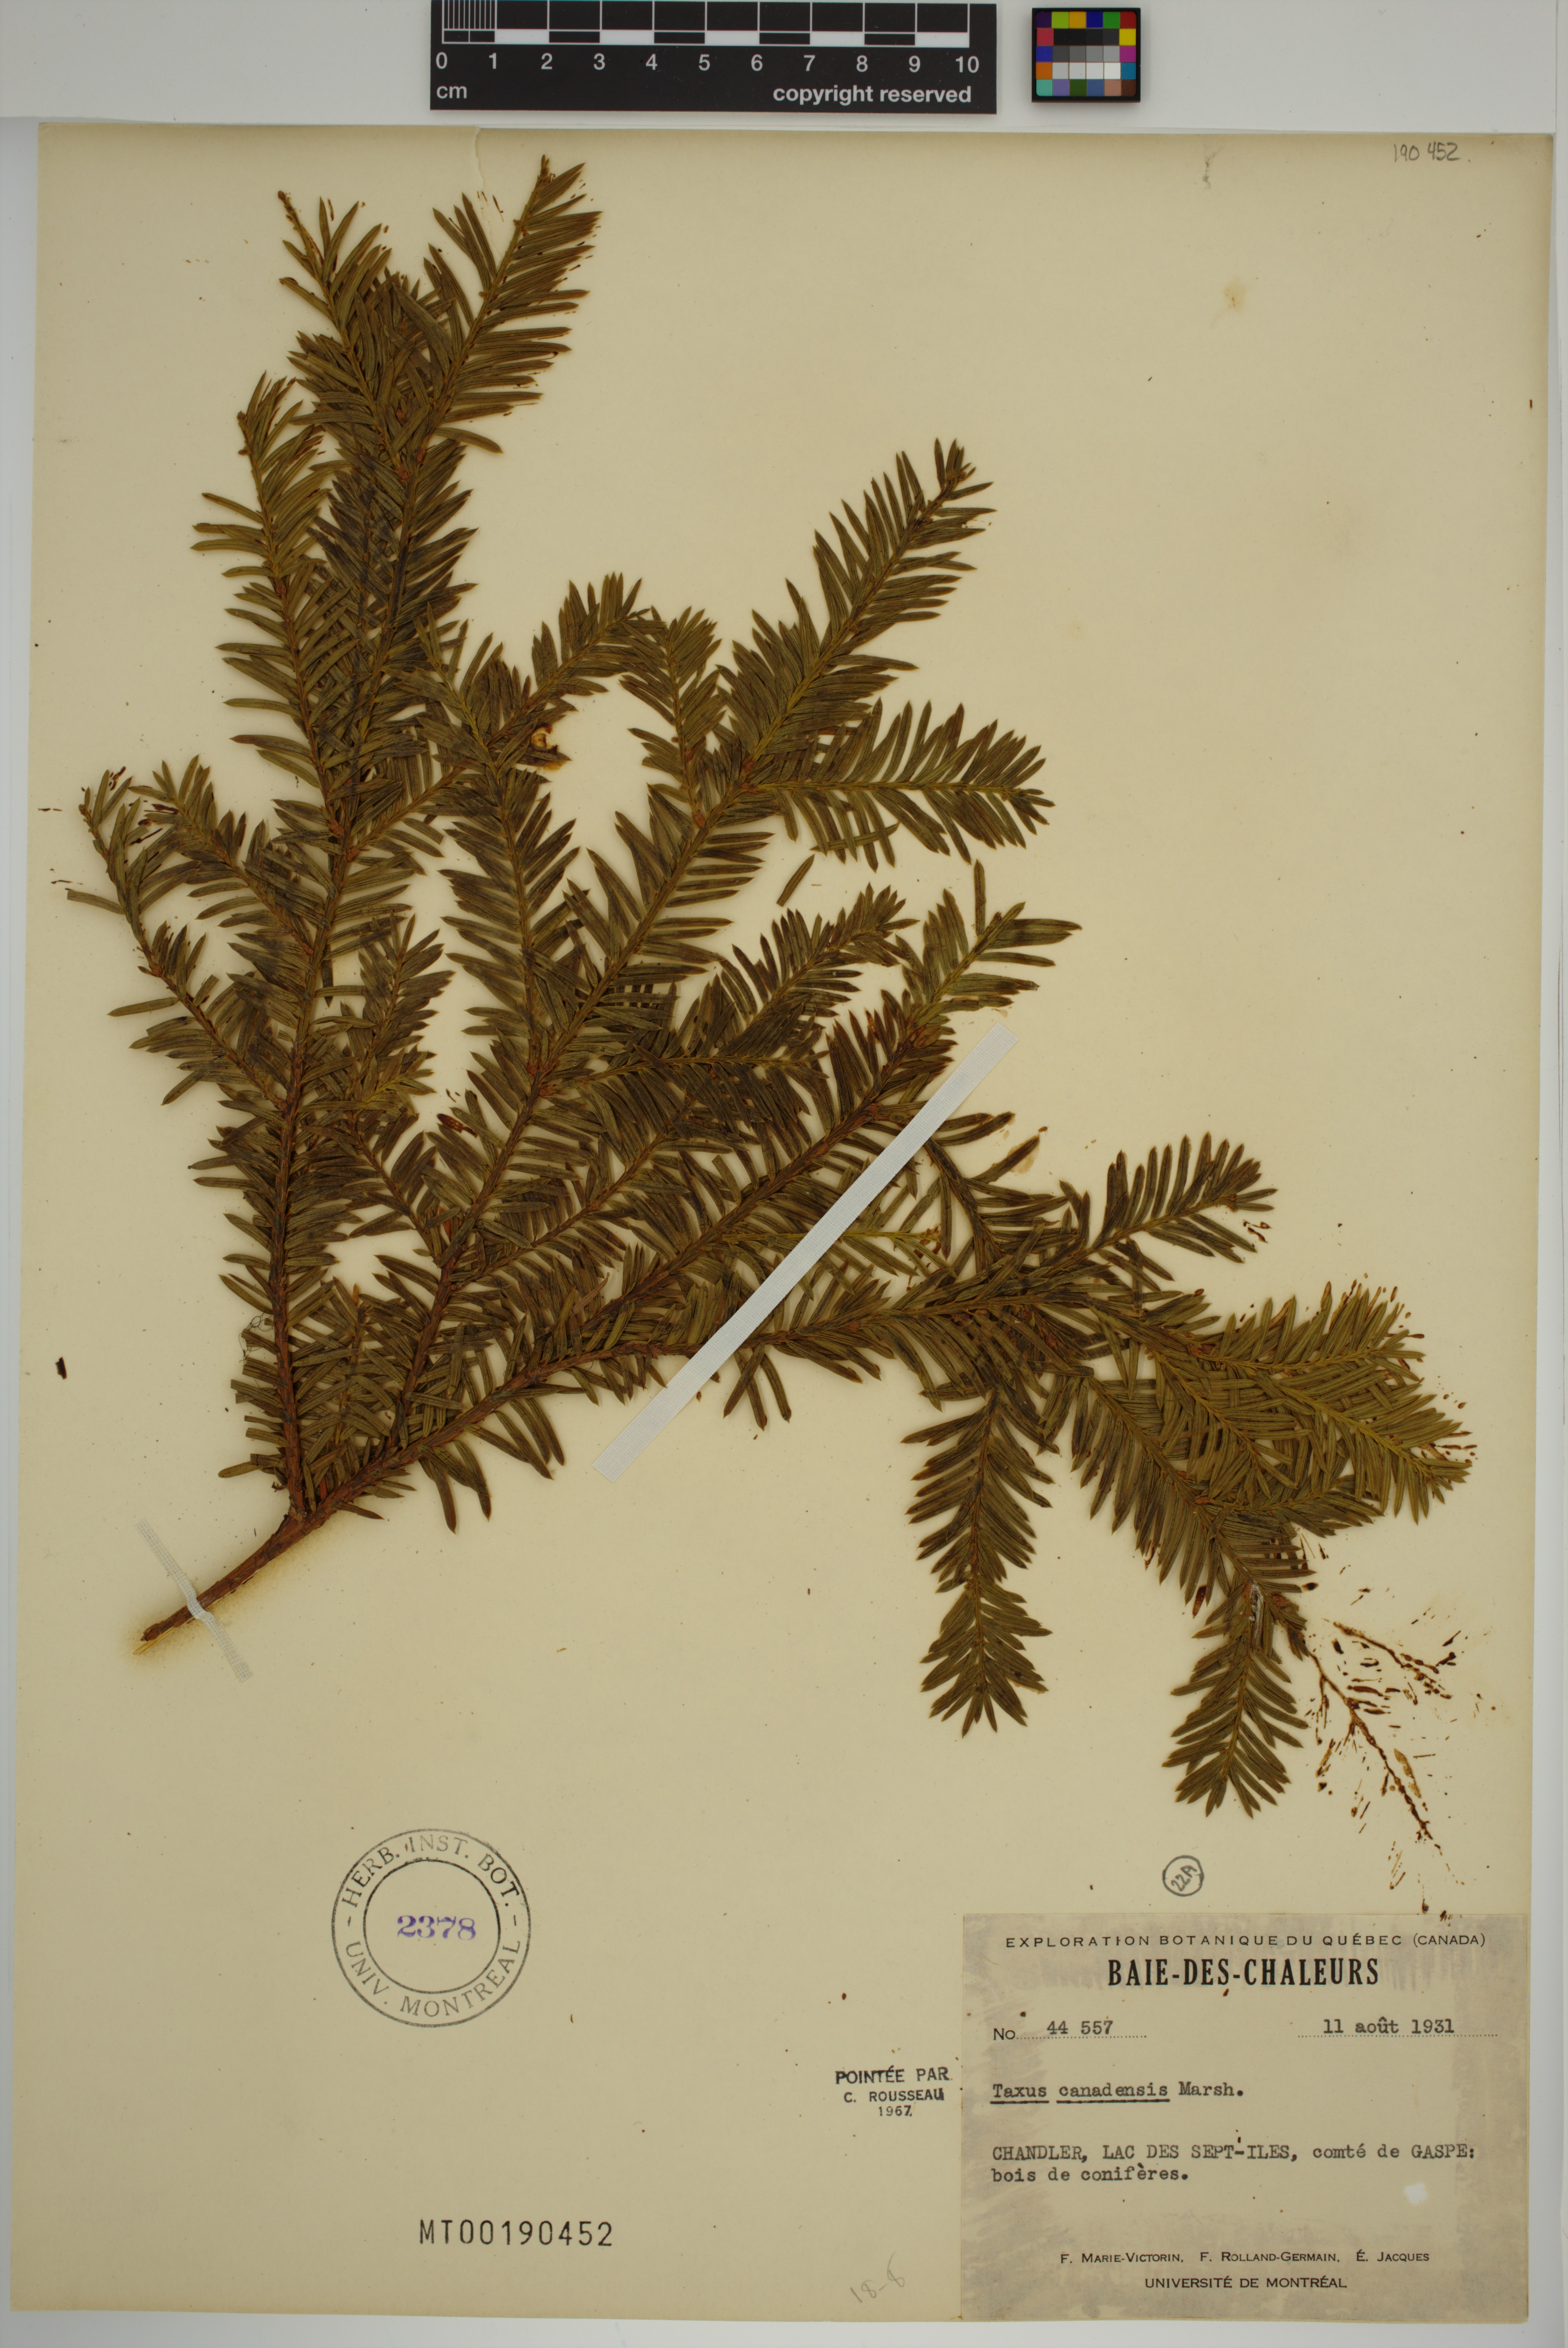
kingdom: Plantae
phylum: Tracheophyta
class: Pinopsida
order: Pinales
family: Taxaceae
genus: Taxus
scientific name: Taxus canadensis
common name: American yew
